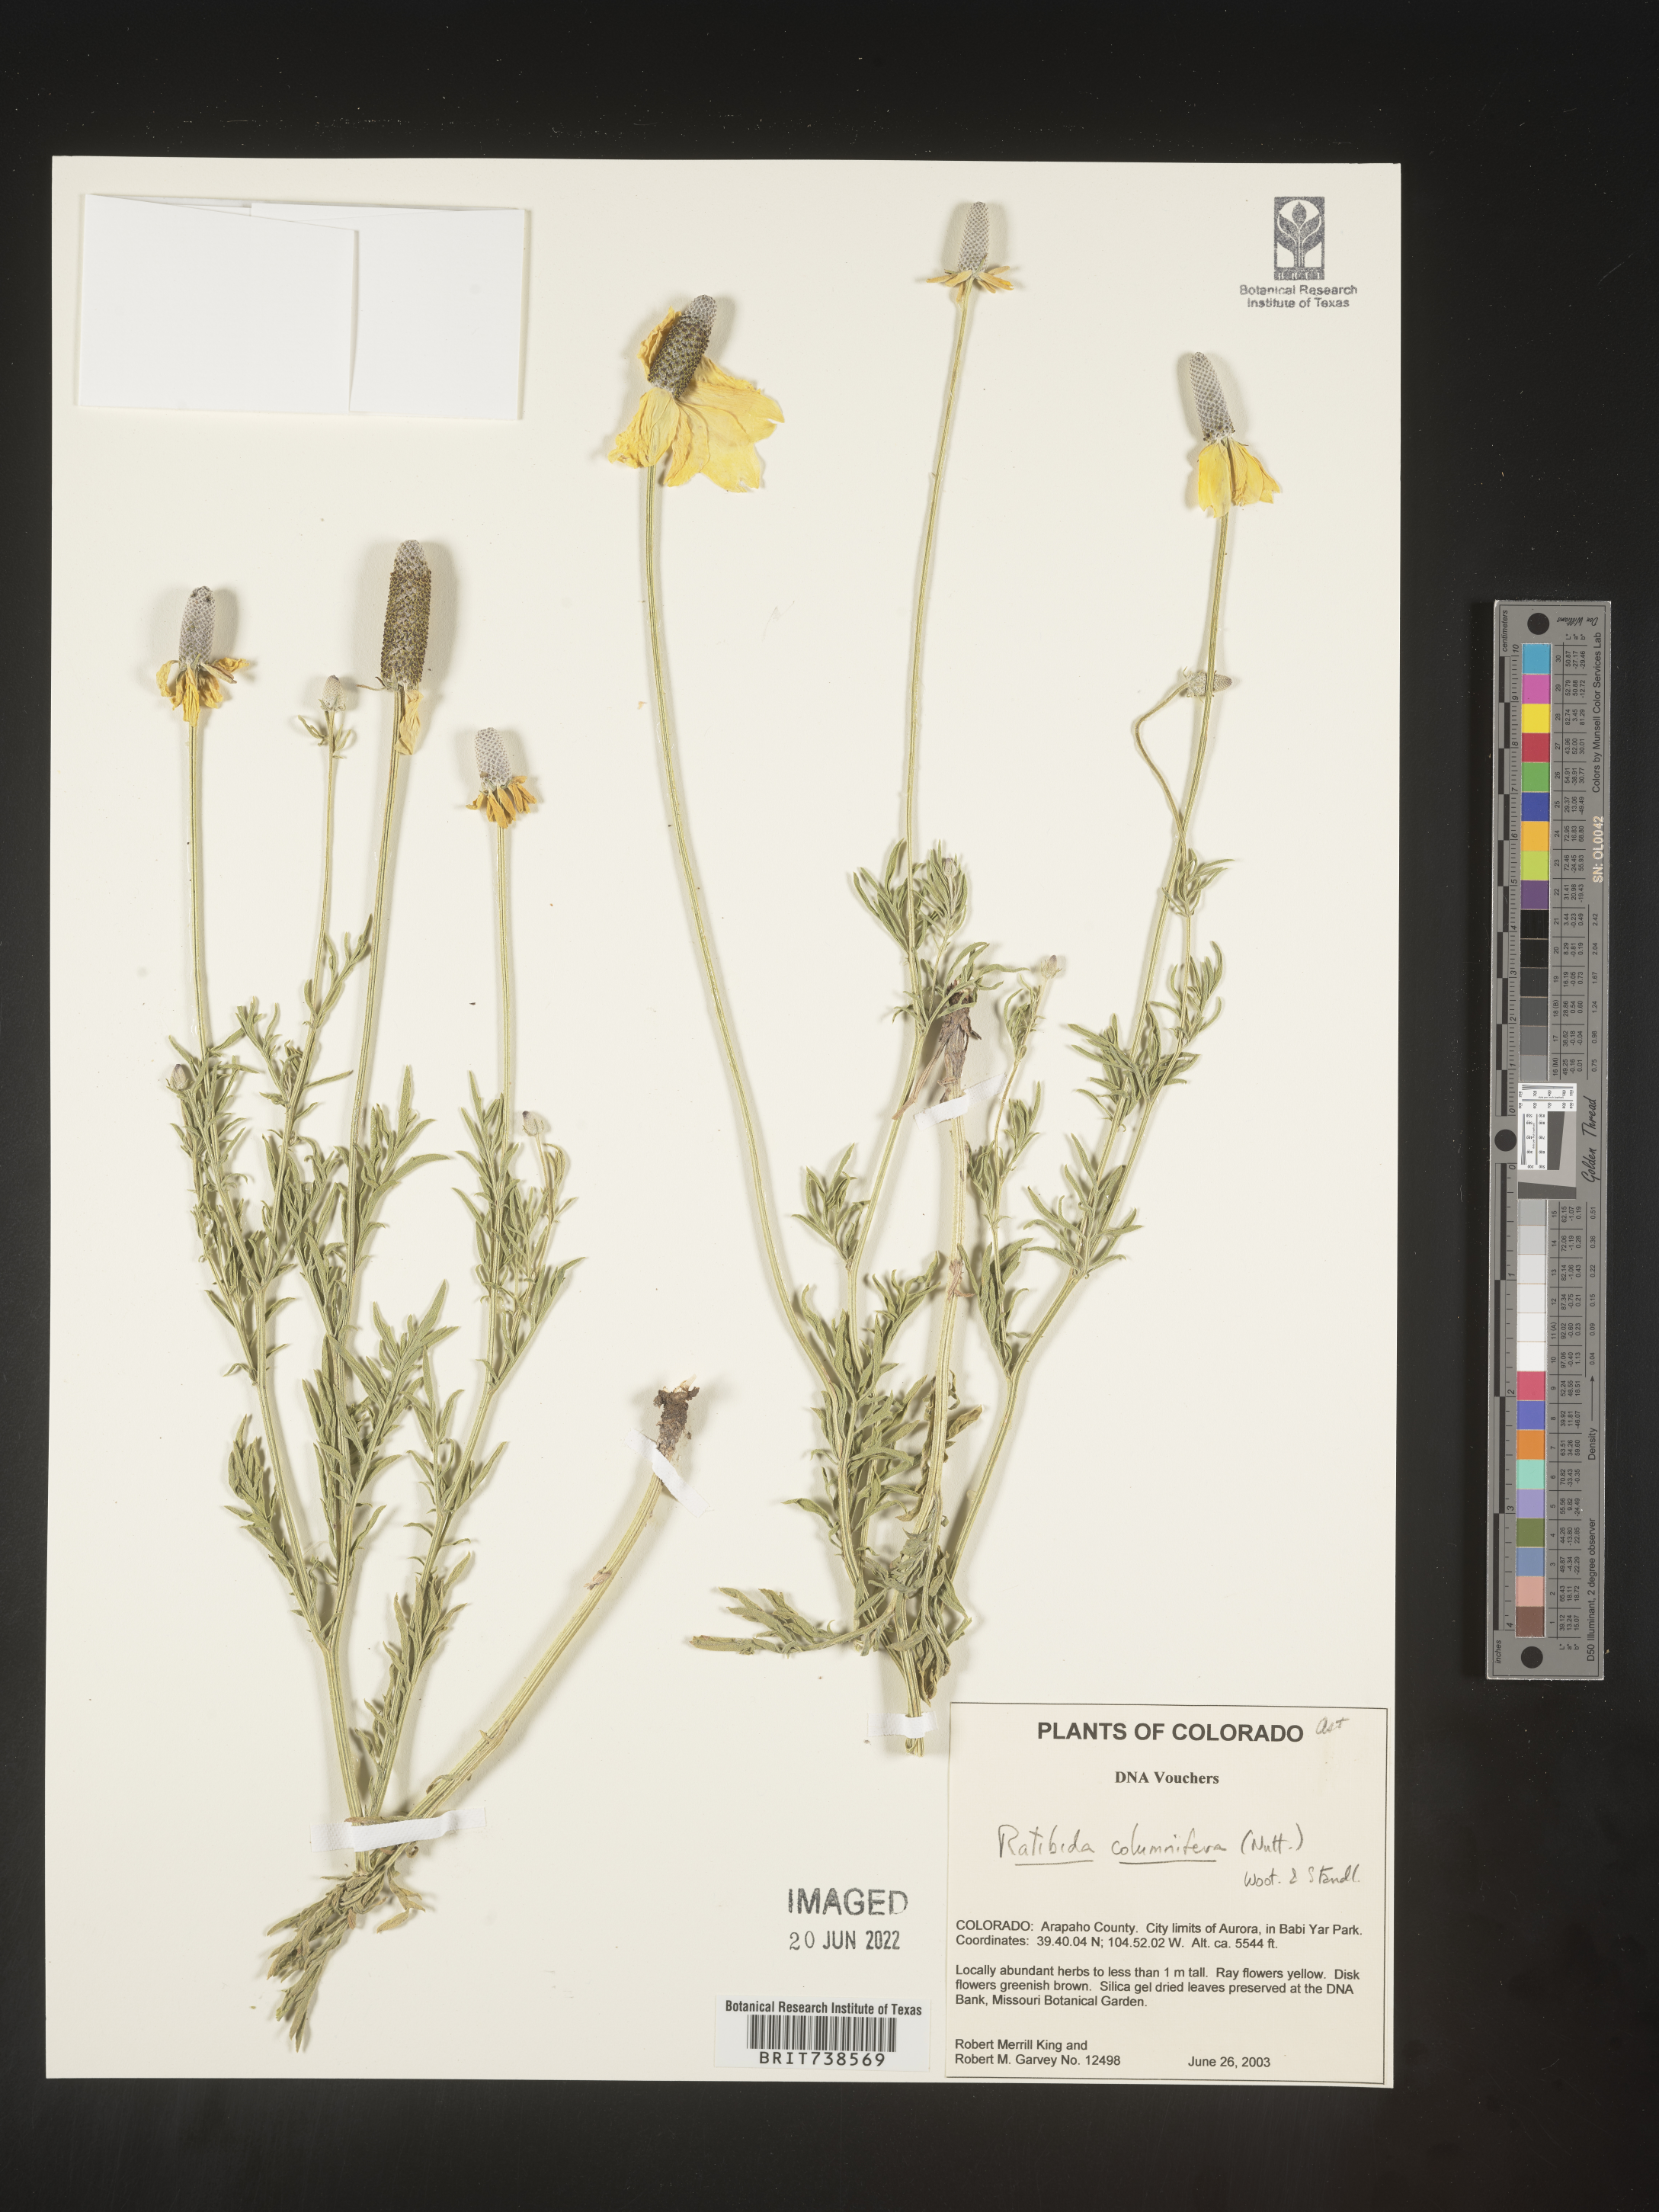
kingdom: Plantae
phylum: Tracheophyta
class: Magnoliopsida
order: Asterales
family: Asteraceae
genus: Ratibida
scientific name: Ratibida columnifera
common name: Prairie coneflower
